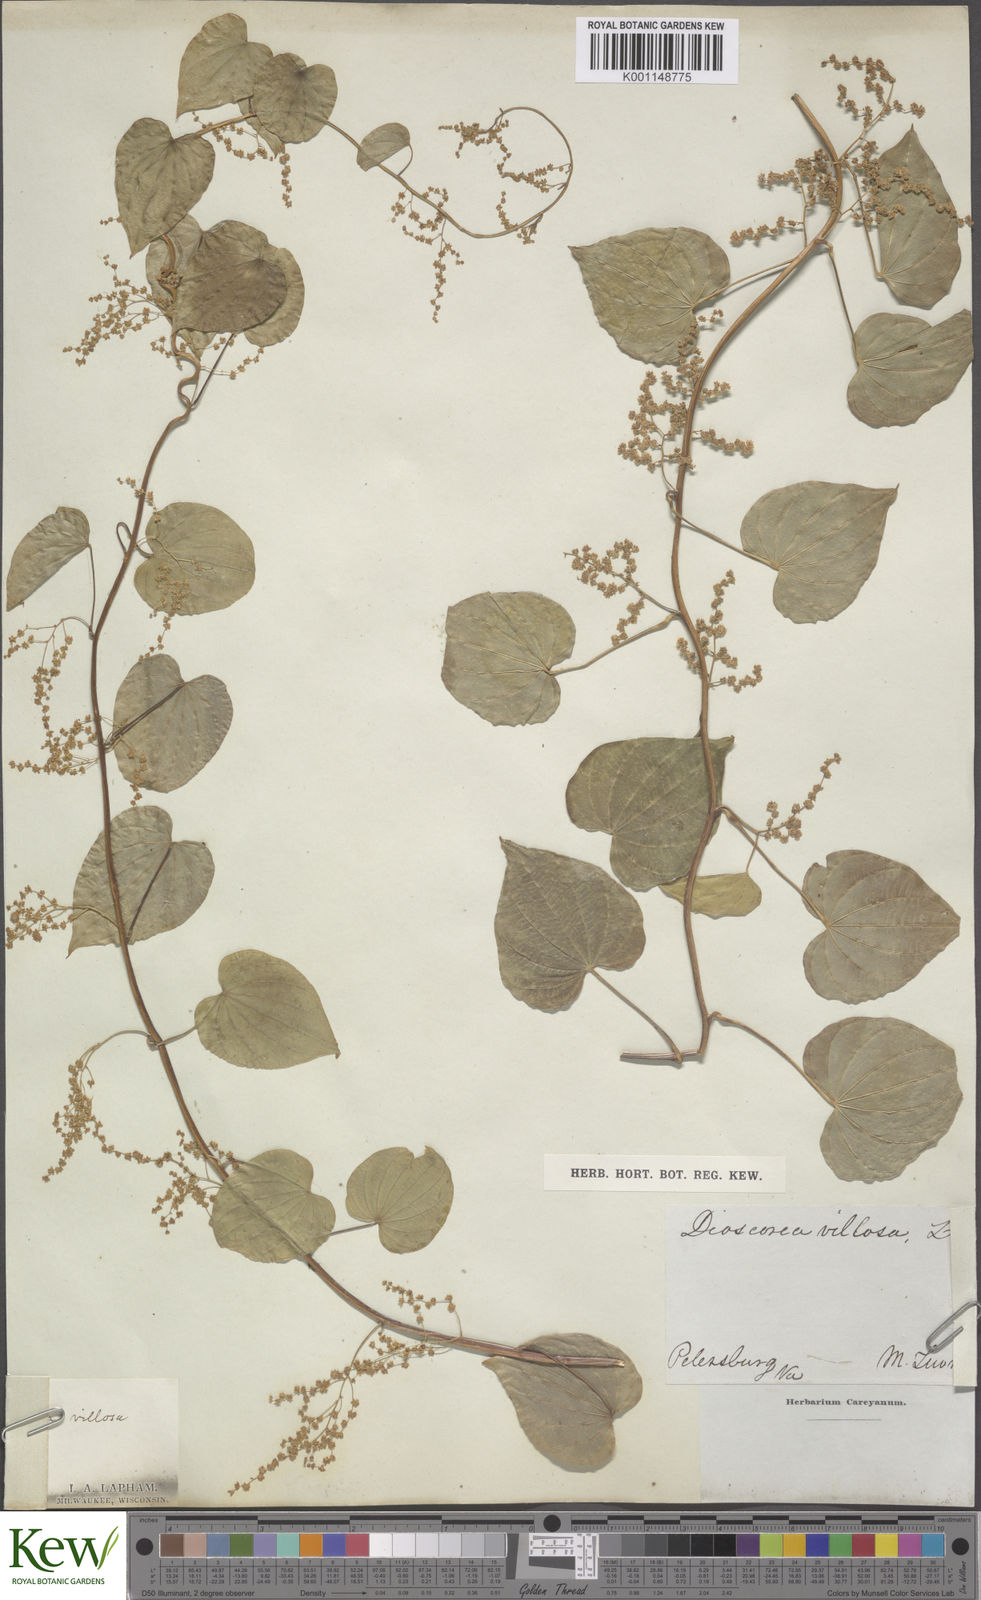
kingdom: Plantae
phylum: Tracheophyta
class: Liliopsida
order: Dioscoreales
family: Dioscoreaceae
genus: Dioscorea
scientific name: Dioscorea villosa
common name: Wild yam
